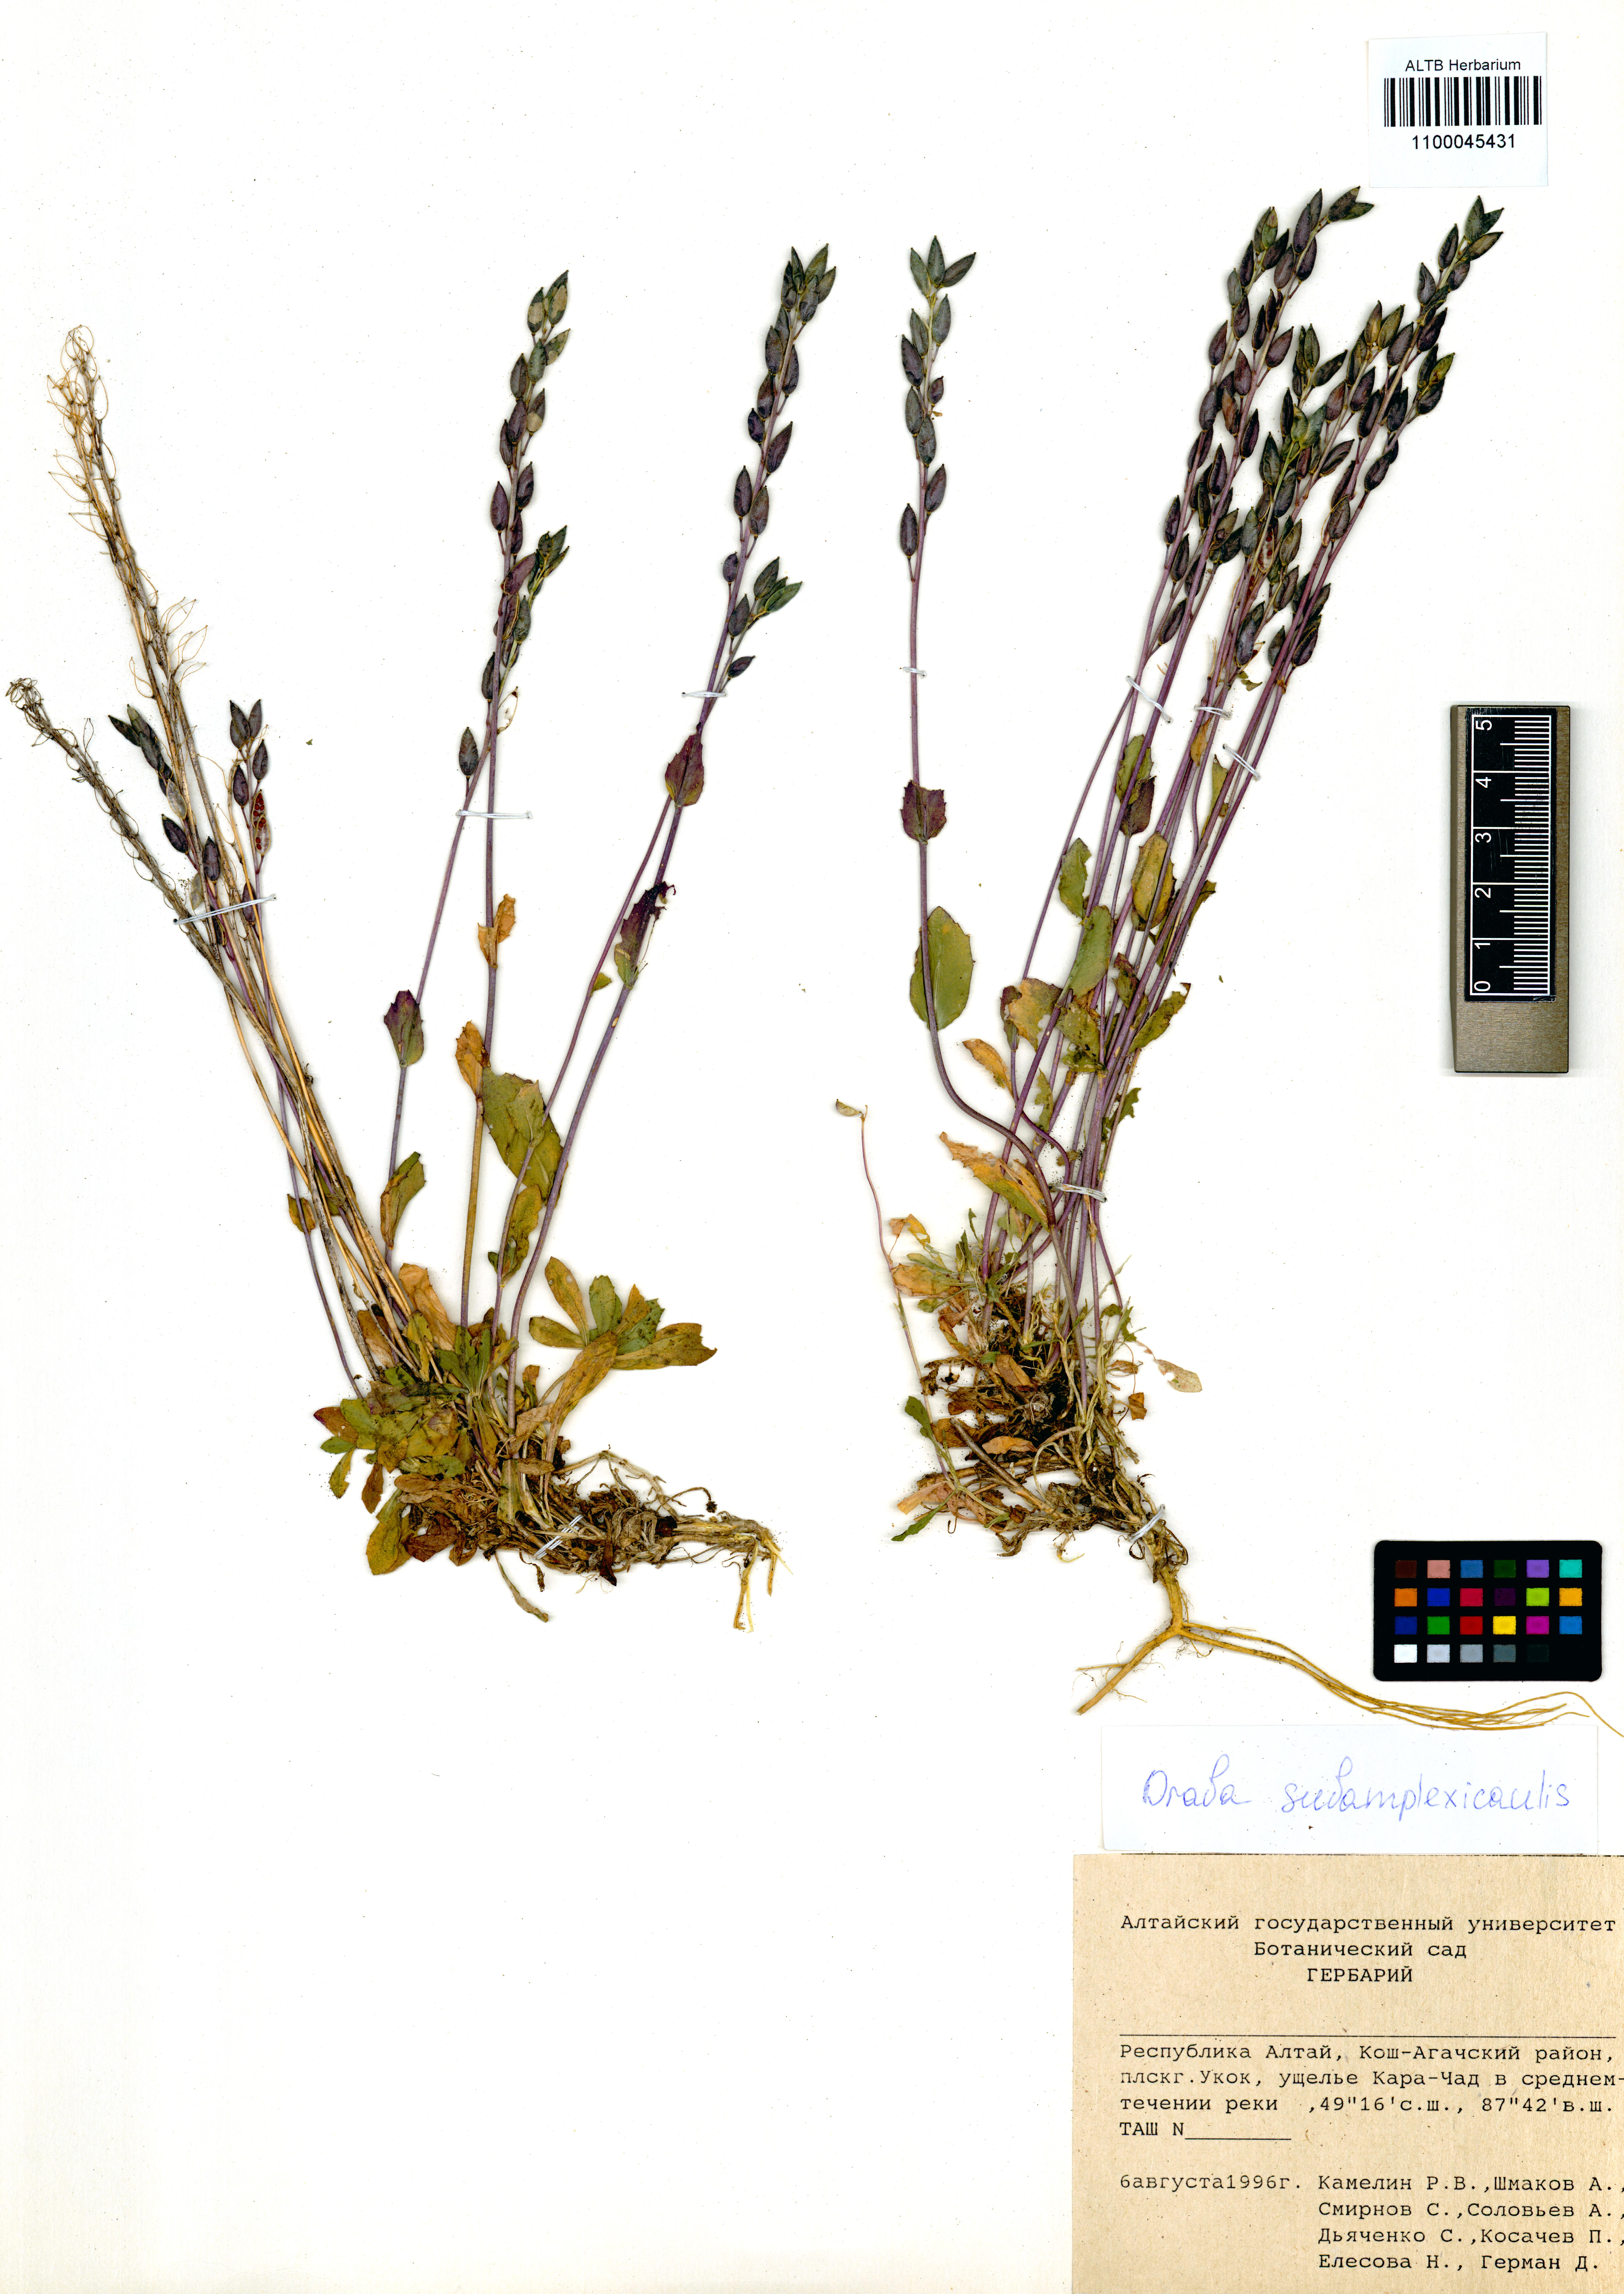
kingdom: Plantae
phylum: Tracheophyta
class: Magnoliopsida
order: Brassicales
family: Brassicaceae
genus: Draba
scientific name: Draba subamplexicaulis
